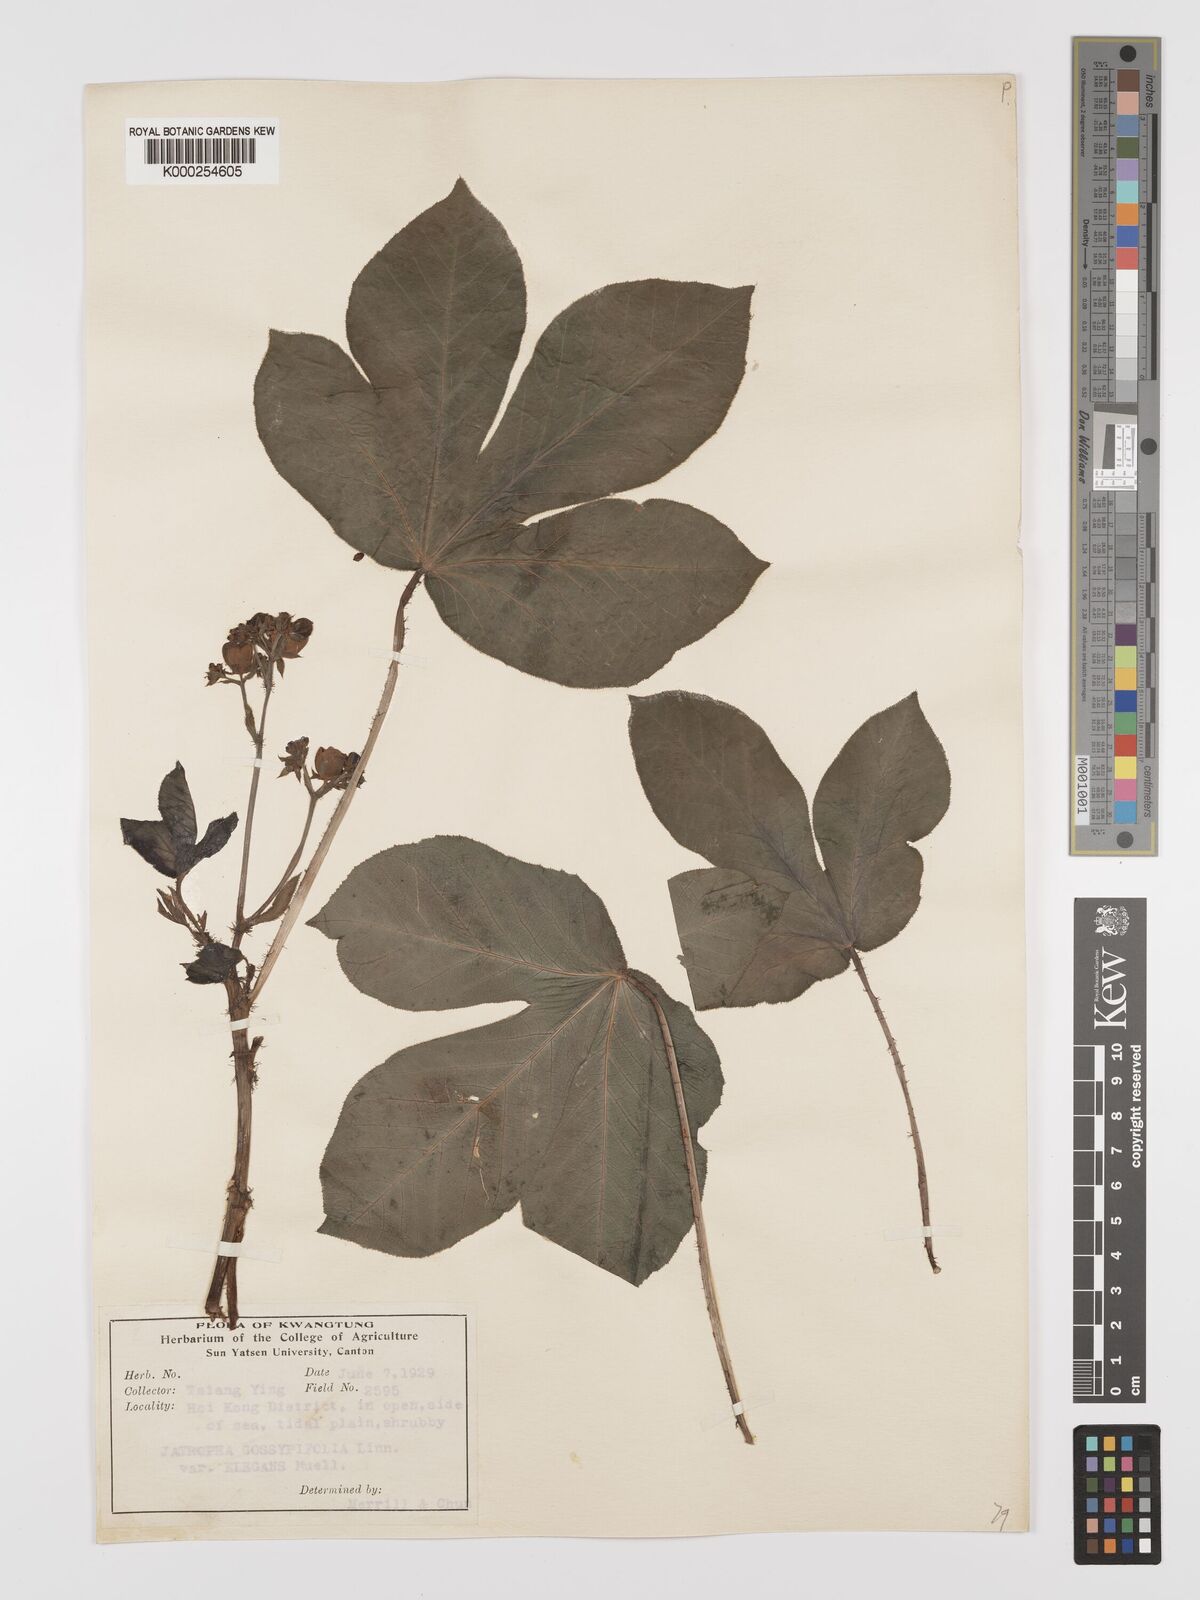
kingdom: Plantae
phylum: Tracheophyta
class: Magnoliopsida
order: Malpighiales
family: Euphorbiaceae
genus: Jatropha
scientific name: Jatropha gossypiifolia
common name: Bellyache bush
